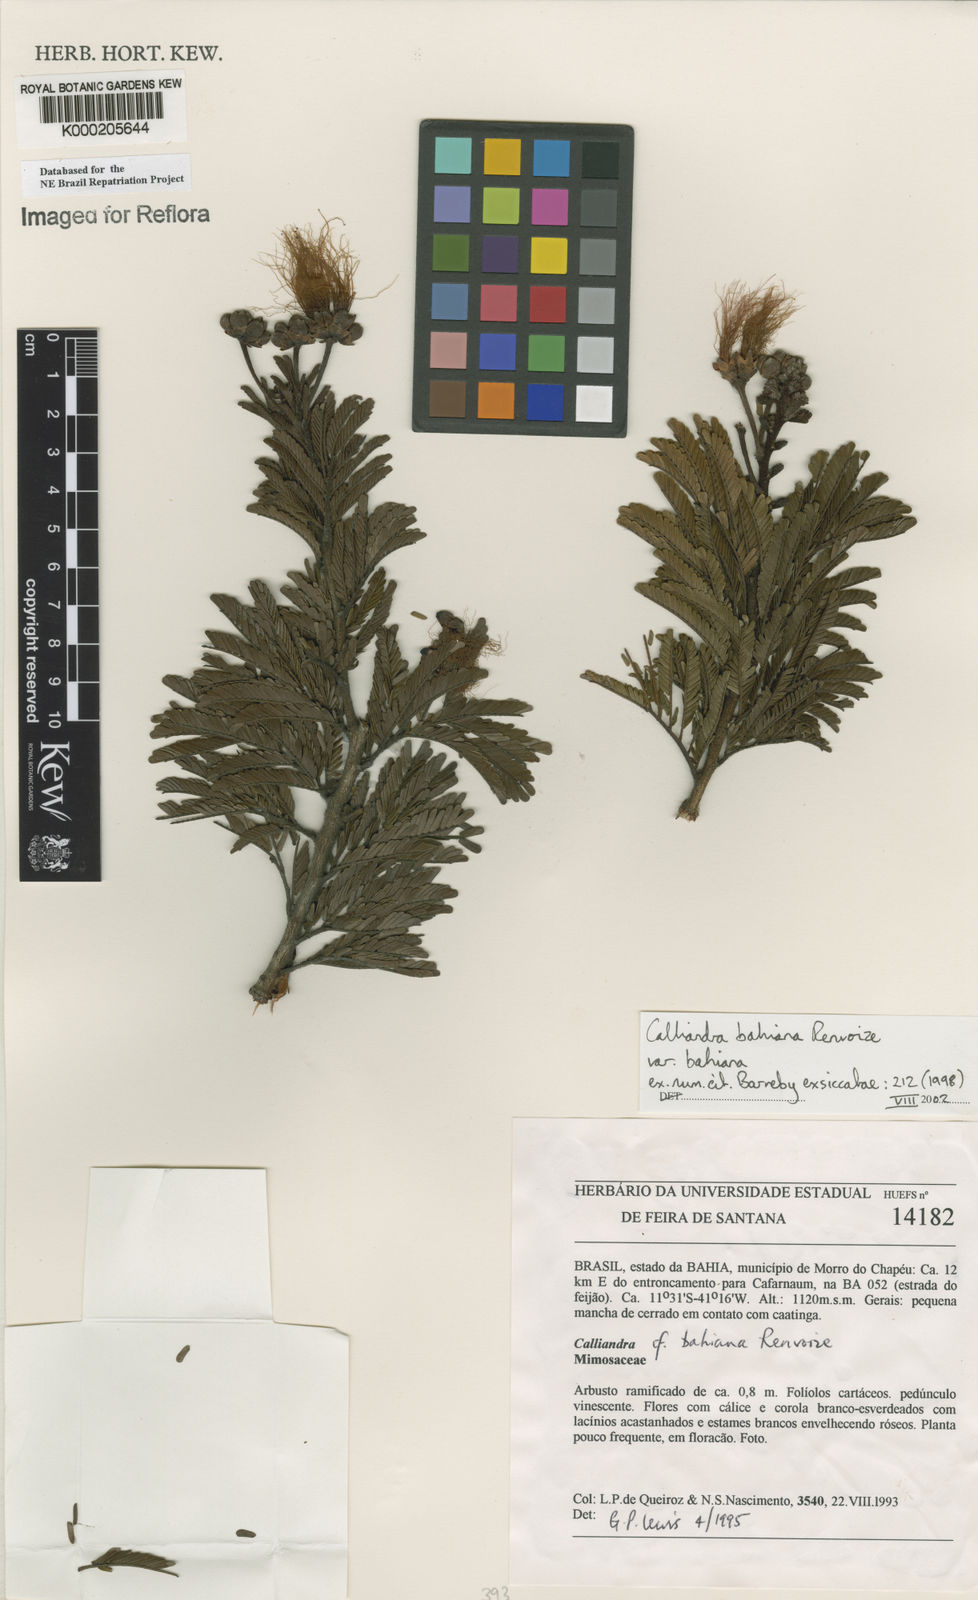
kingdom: Plantae
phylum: Tracheophyta
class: Magnoliopsida
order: Fabales
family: Fabaceae
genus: Calliandra
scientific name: Calliandra bahiana
